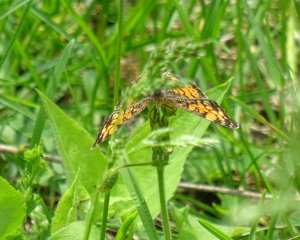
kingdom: Animalia
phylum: Arthropoda
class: Insecta
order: Lepidoptera
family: Nymphalidae
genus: Phyciodes
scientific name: Phyciodes
